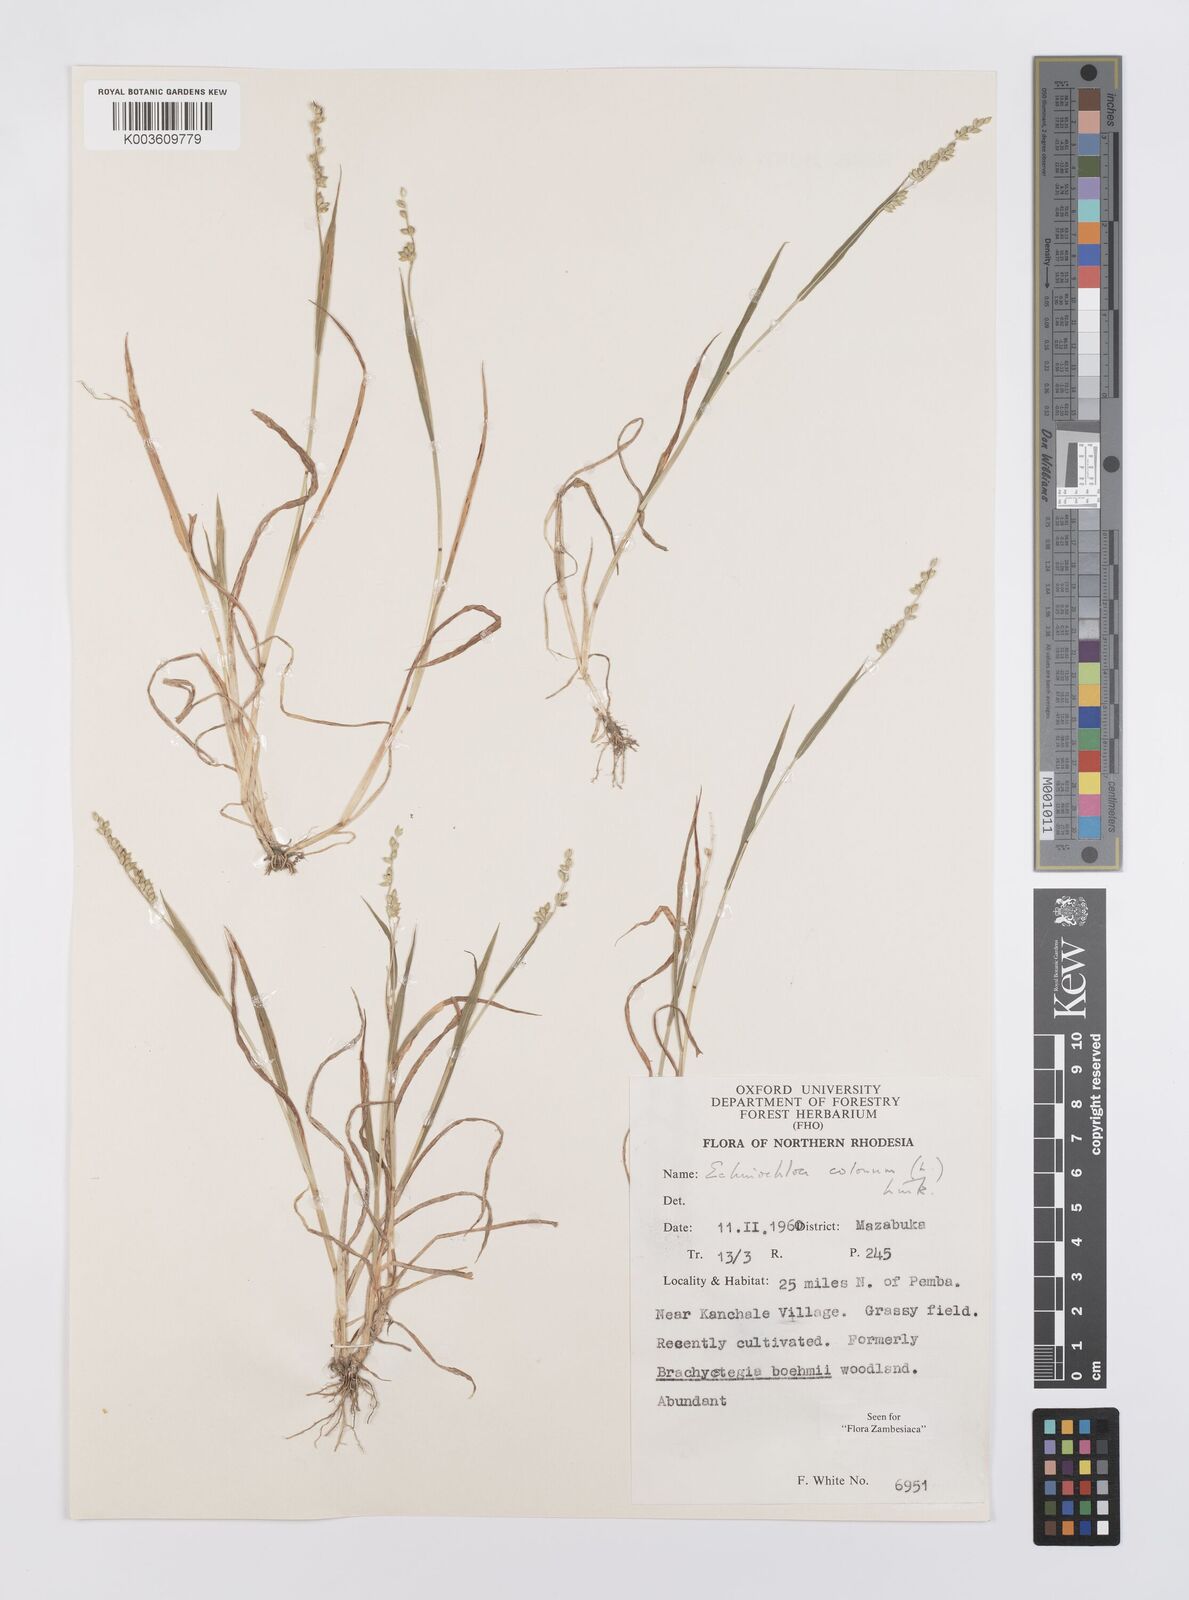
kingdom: Plantae
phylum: Tracheophyta
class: Liliopsida
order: Poales
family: Poaceae
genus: Echinochloa
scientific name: Echinochloa colonum
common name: Jungle rice
